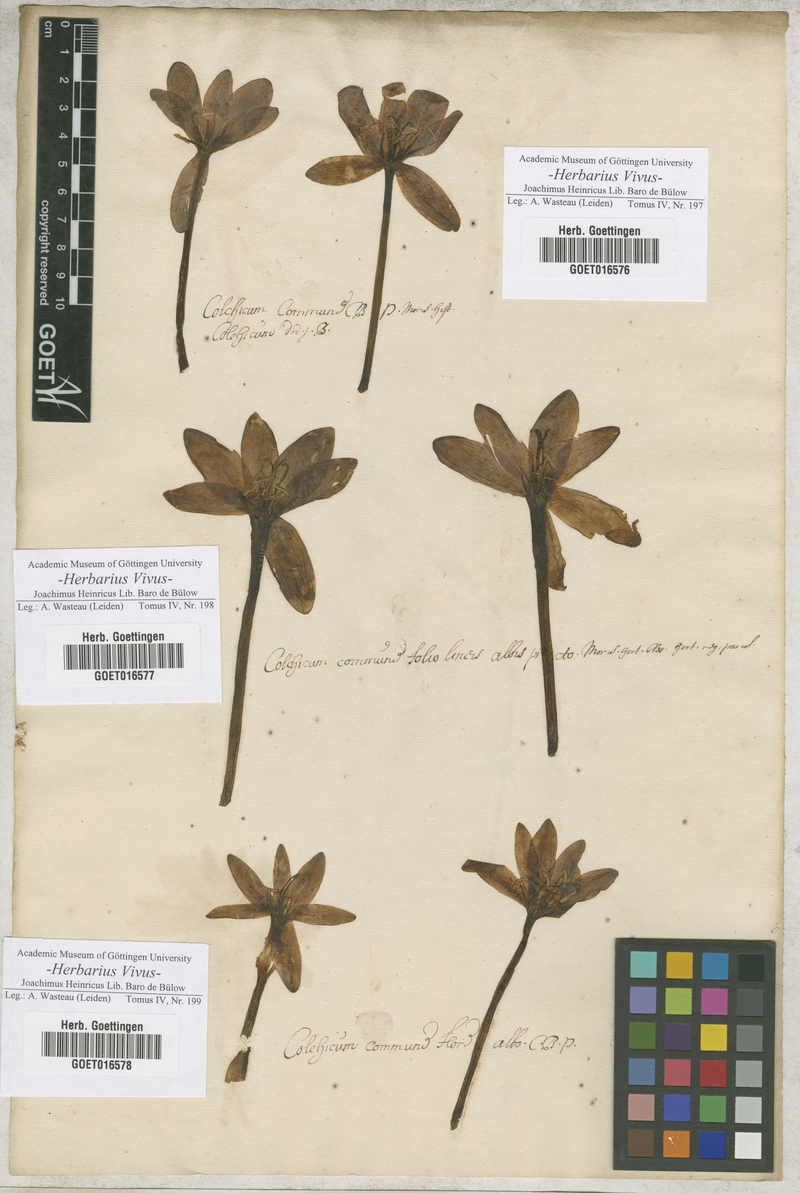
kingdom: Plantae
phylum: Tracheophyta
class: Liliopsida
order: Liliales
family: Colchicaceae
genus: Colchicum
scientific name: Colchicum autumnale
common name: Autumn crocus
